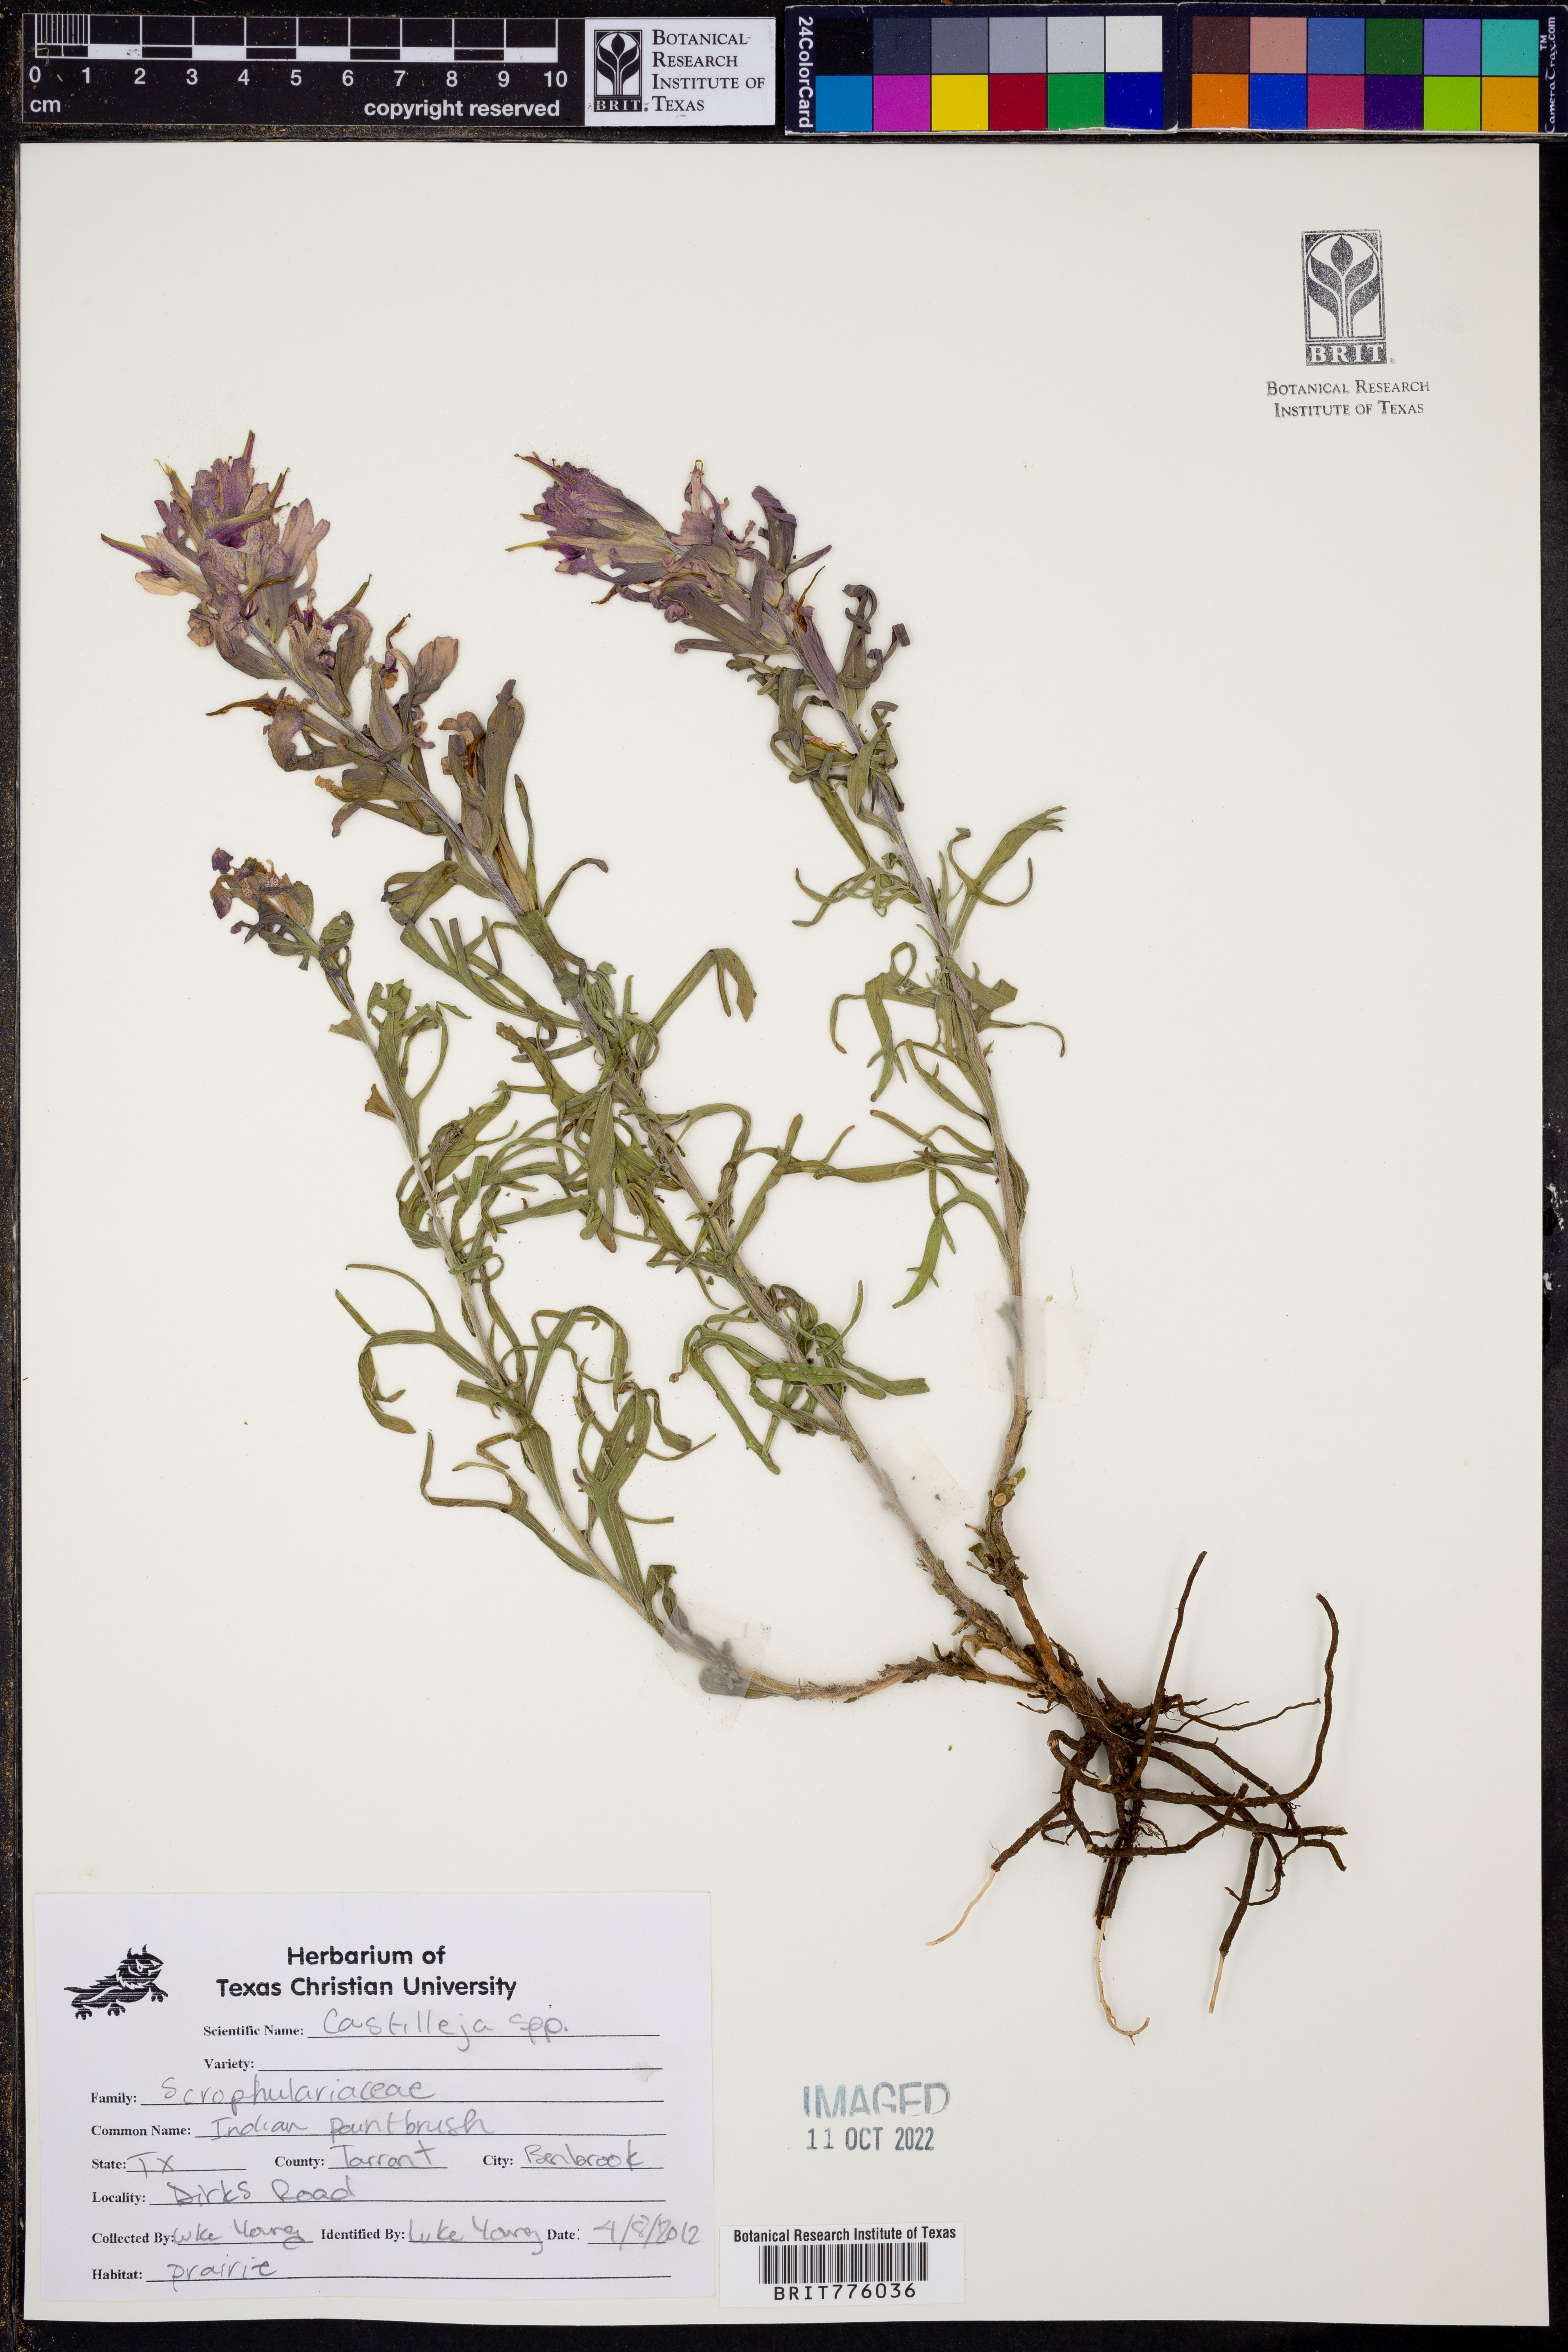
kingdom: Plantae
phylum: Tracheophyta
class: Magnoliopsida
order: Lamiales
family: Orobanchaceae
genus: Castilleja
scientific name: Castilleja
